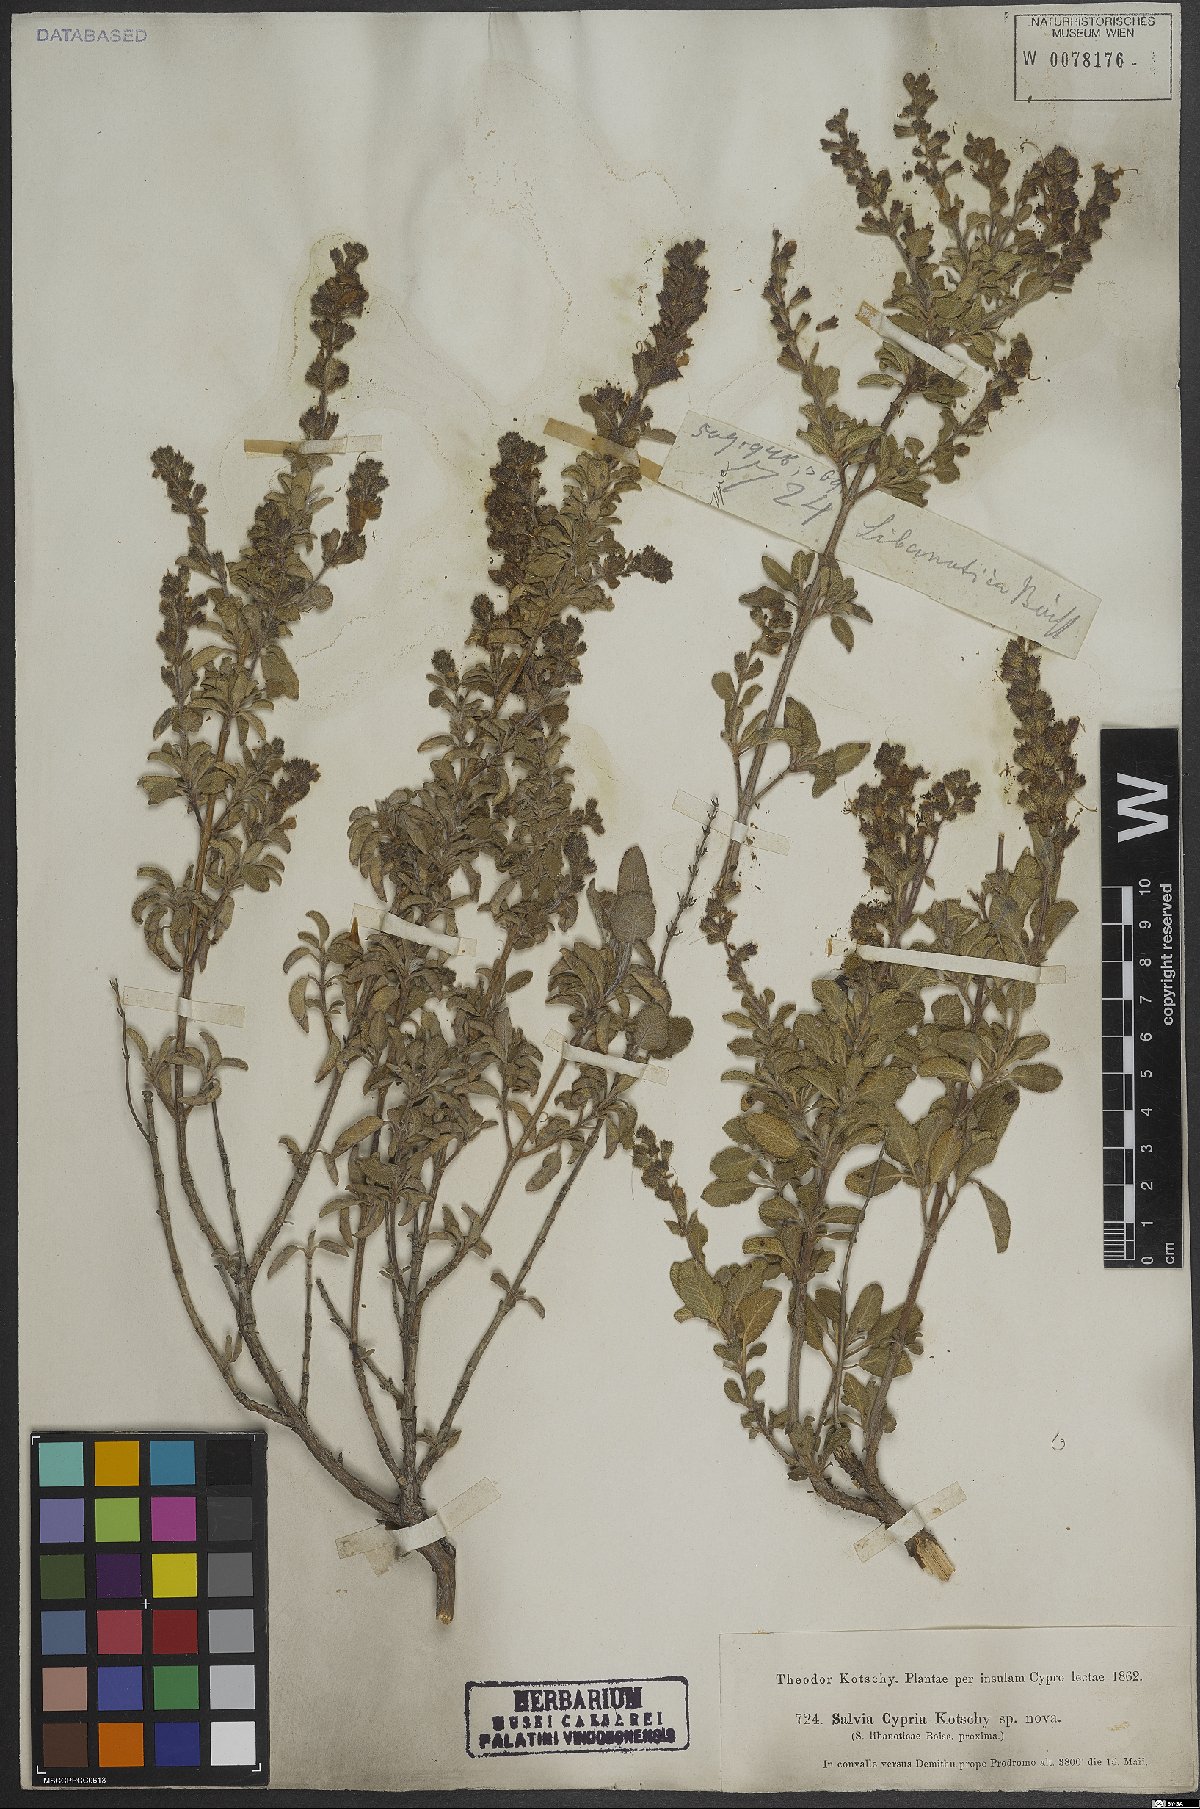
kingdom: Plantae
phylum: Tracheophyta
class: Magnoliopsida
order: Lamiales
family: Lamiaceae
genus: Salvia
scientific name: Salvia fruticosa
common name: Greek sage
